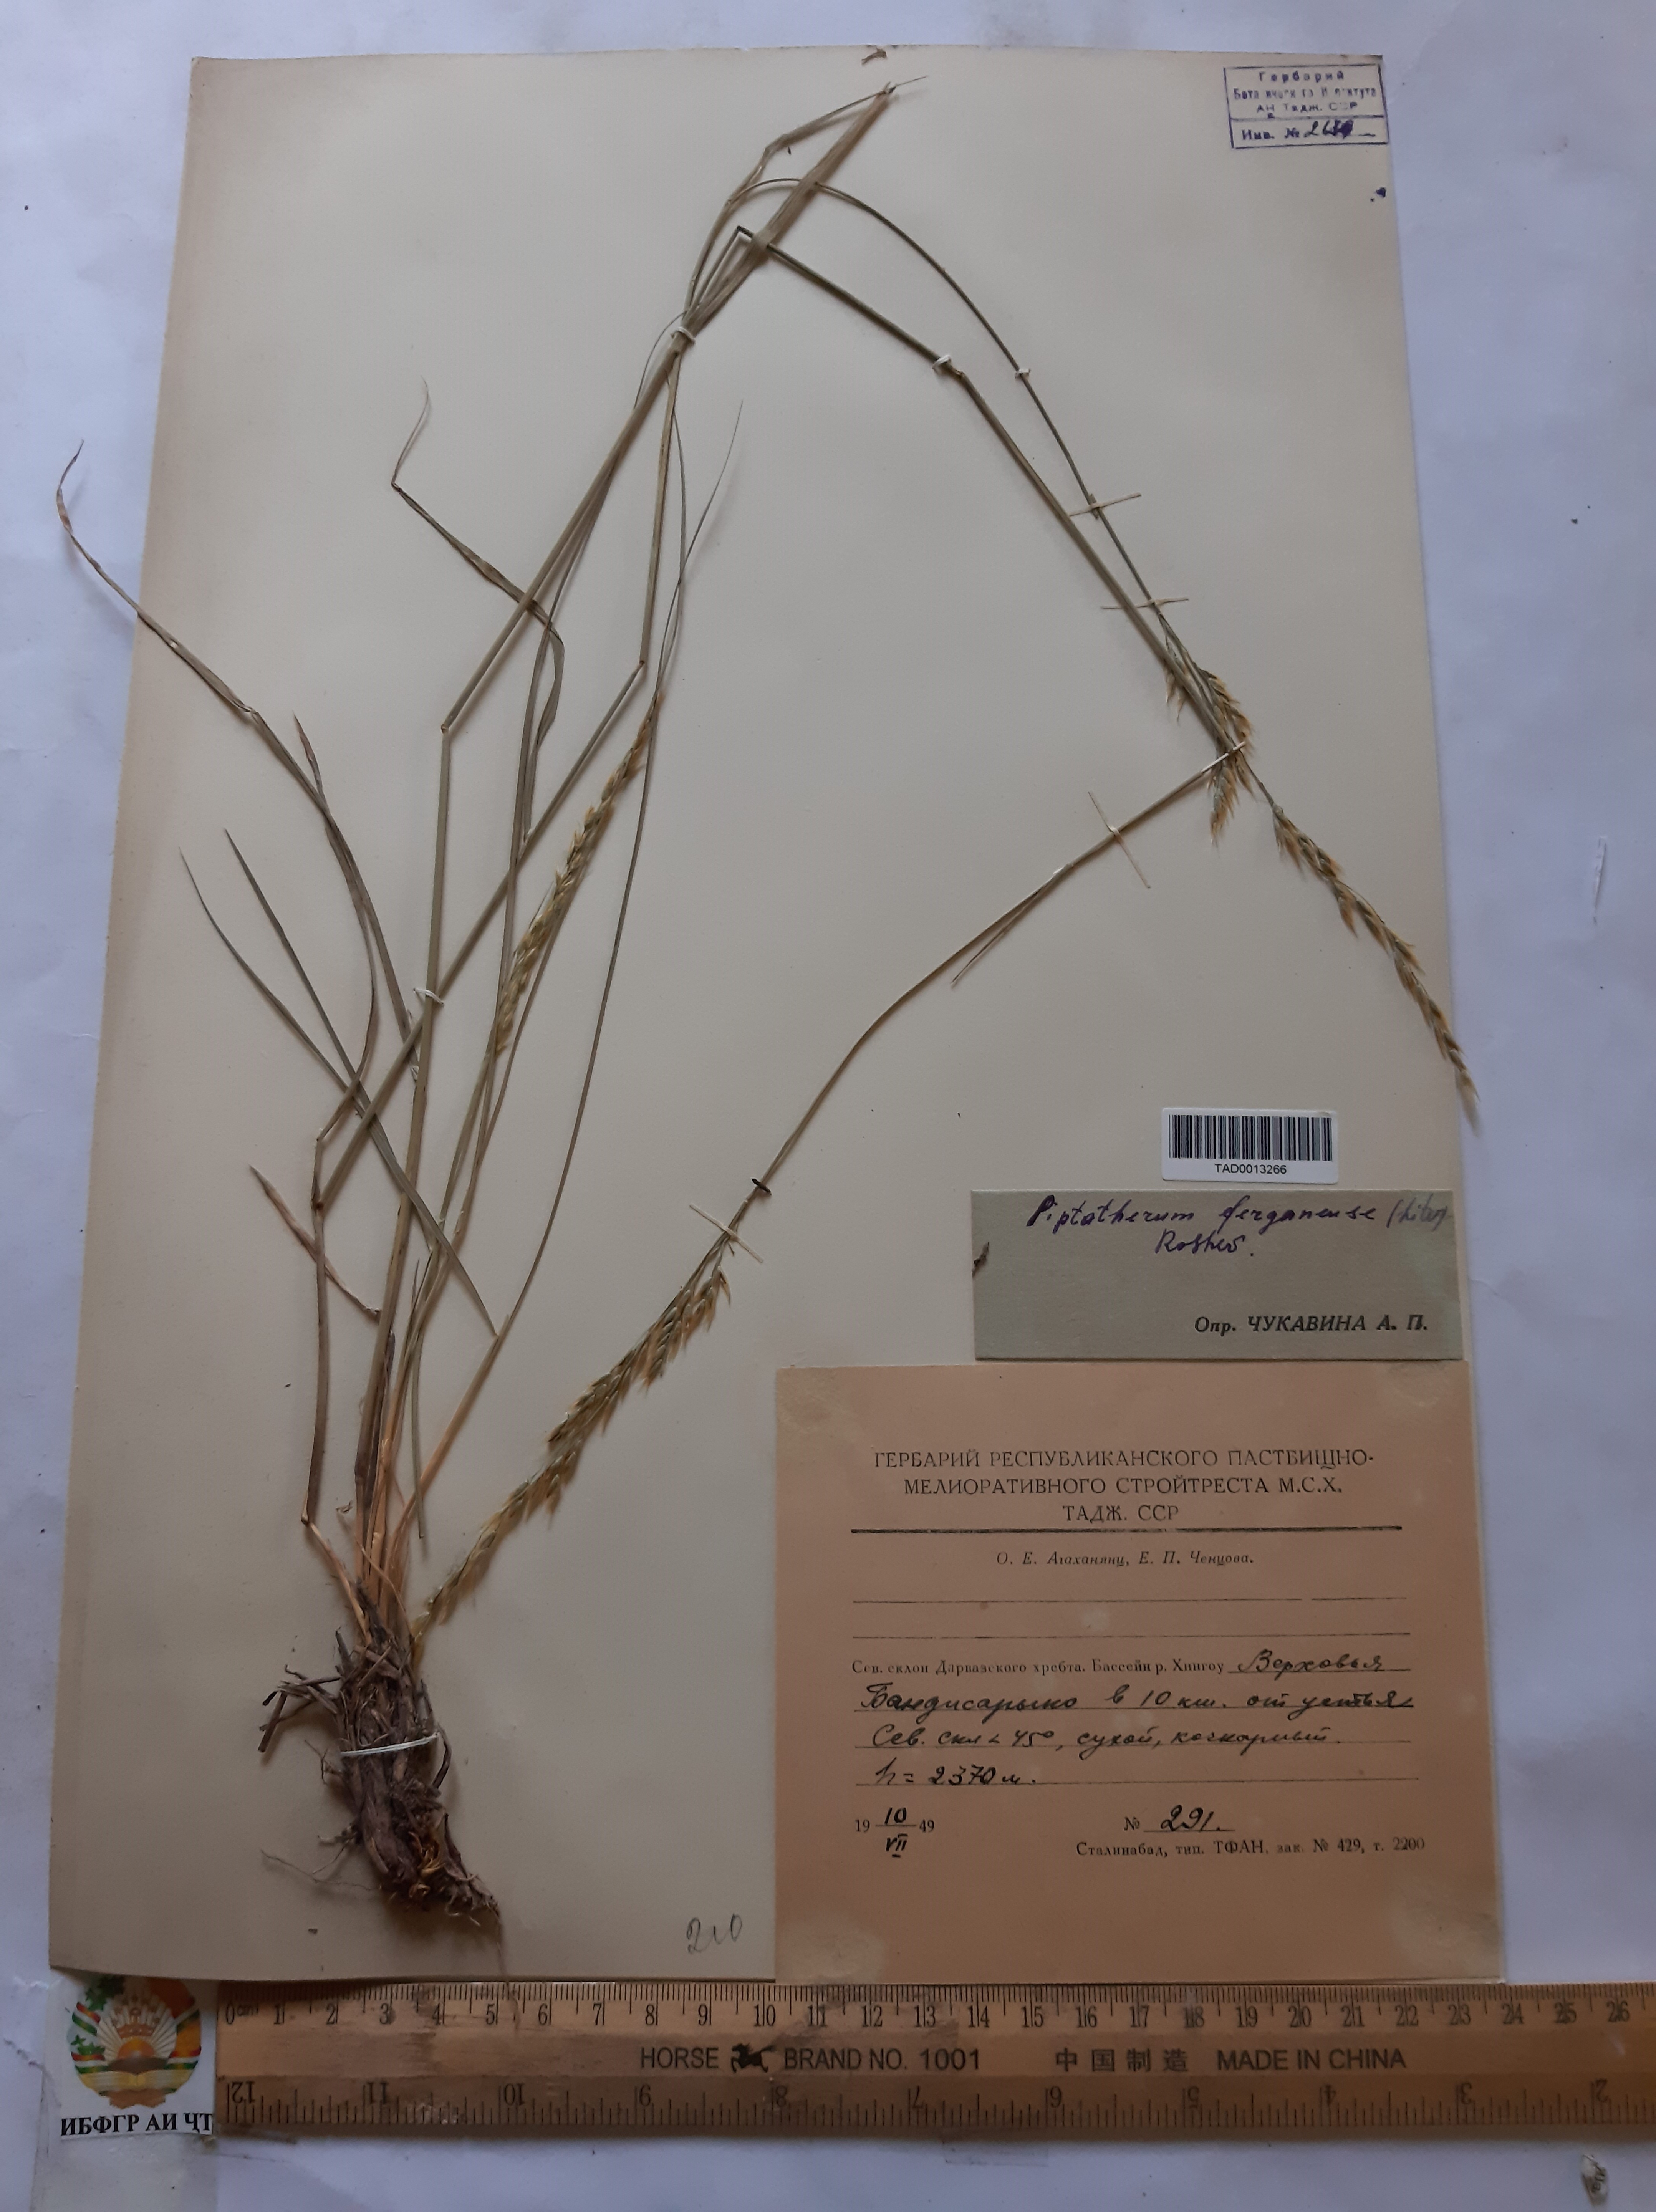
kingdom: Plantae
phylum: Tracheophyta
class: Liliopsida
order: Poales
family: Poaceae
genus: Piptatherum
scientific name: Piptatherum ferganense
